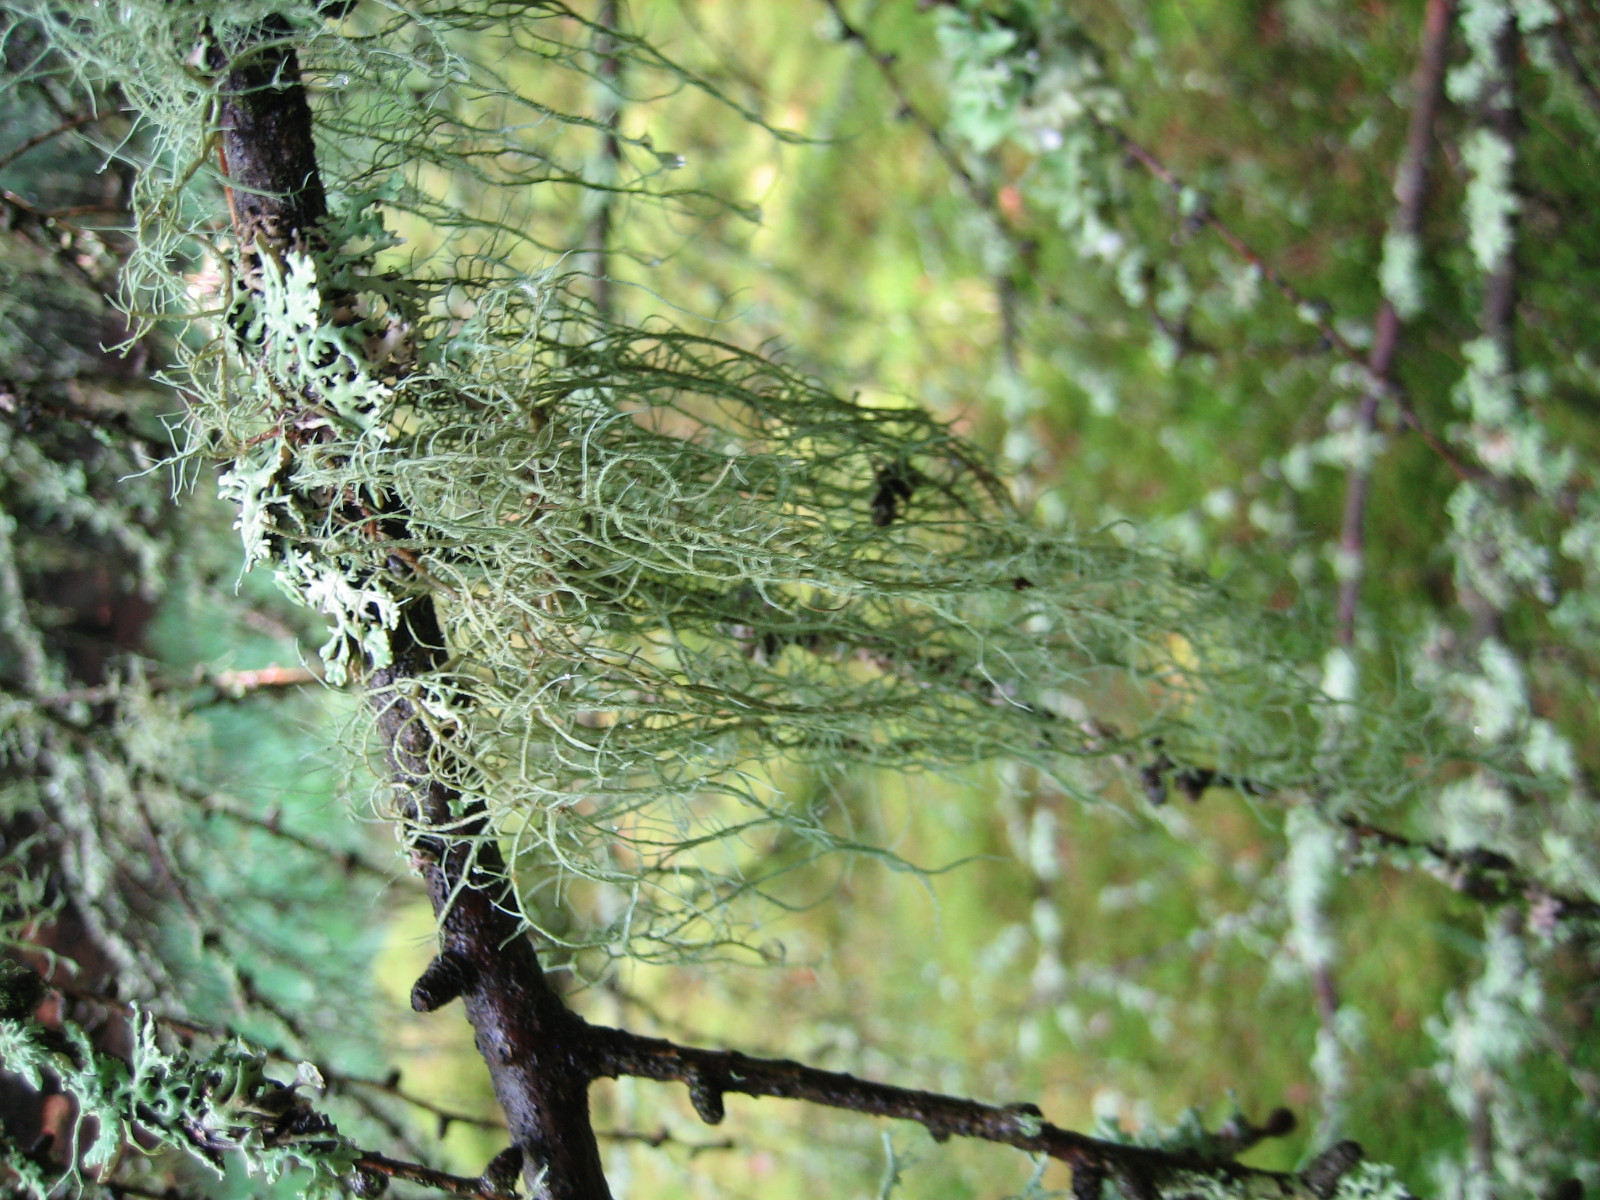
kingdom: Fungi
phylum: Ascomycota
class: Lecanoromycetes
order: Lecanorales
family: Parmeliaceae
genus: Usnea
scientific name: Usnea dasypoga
